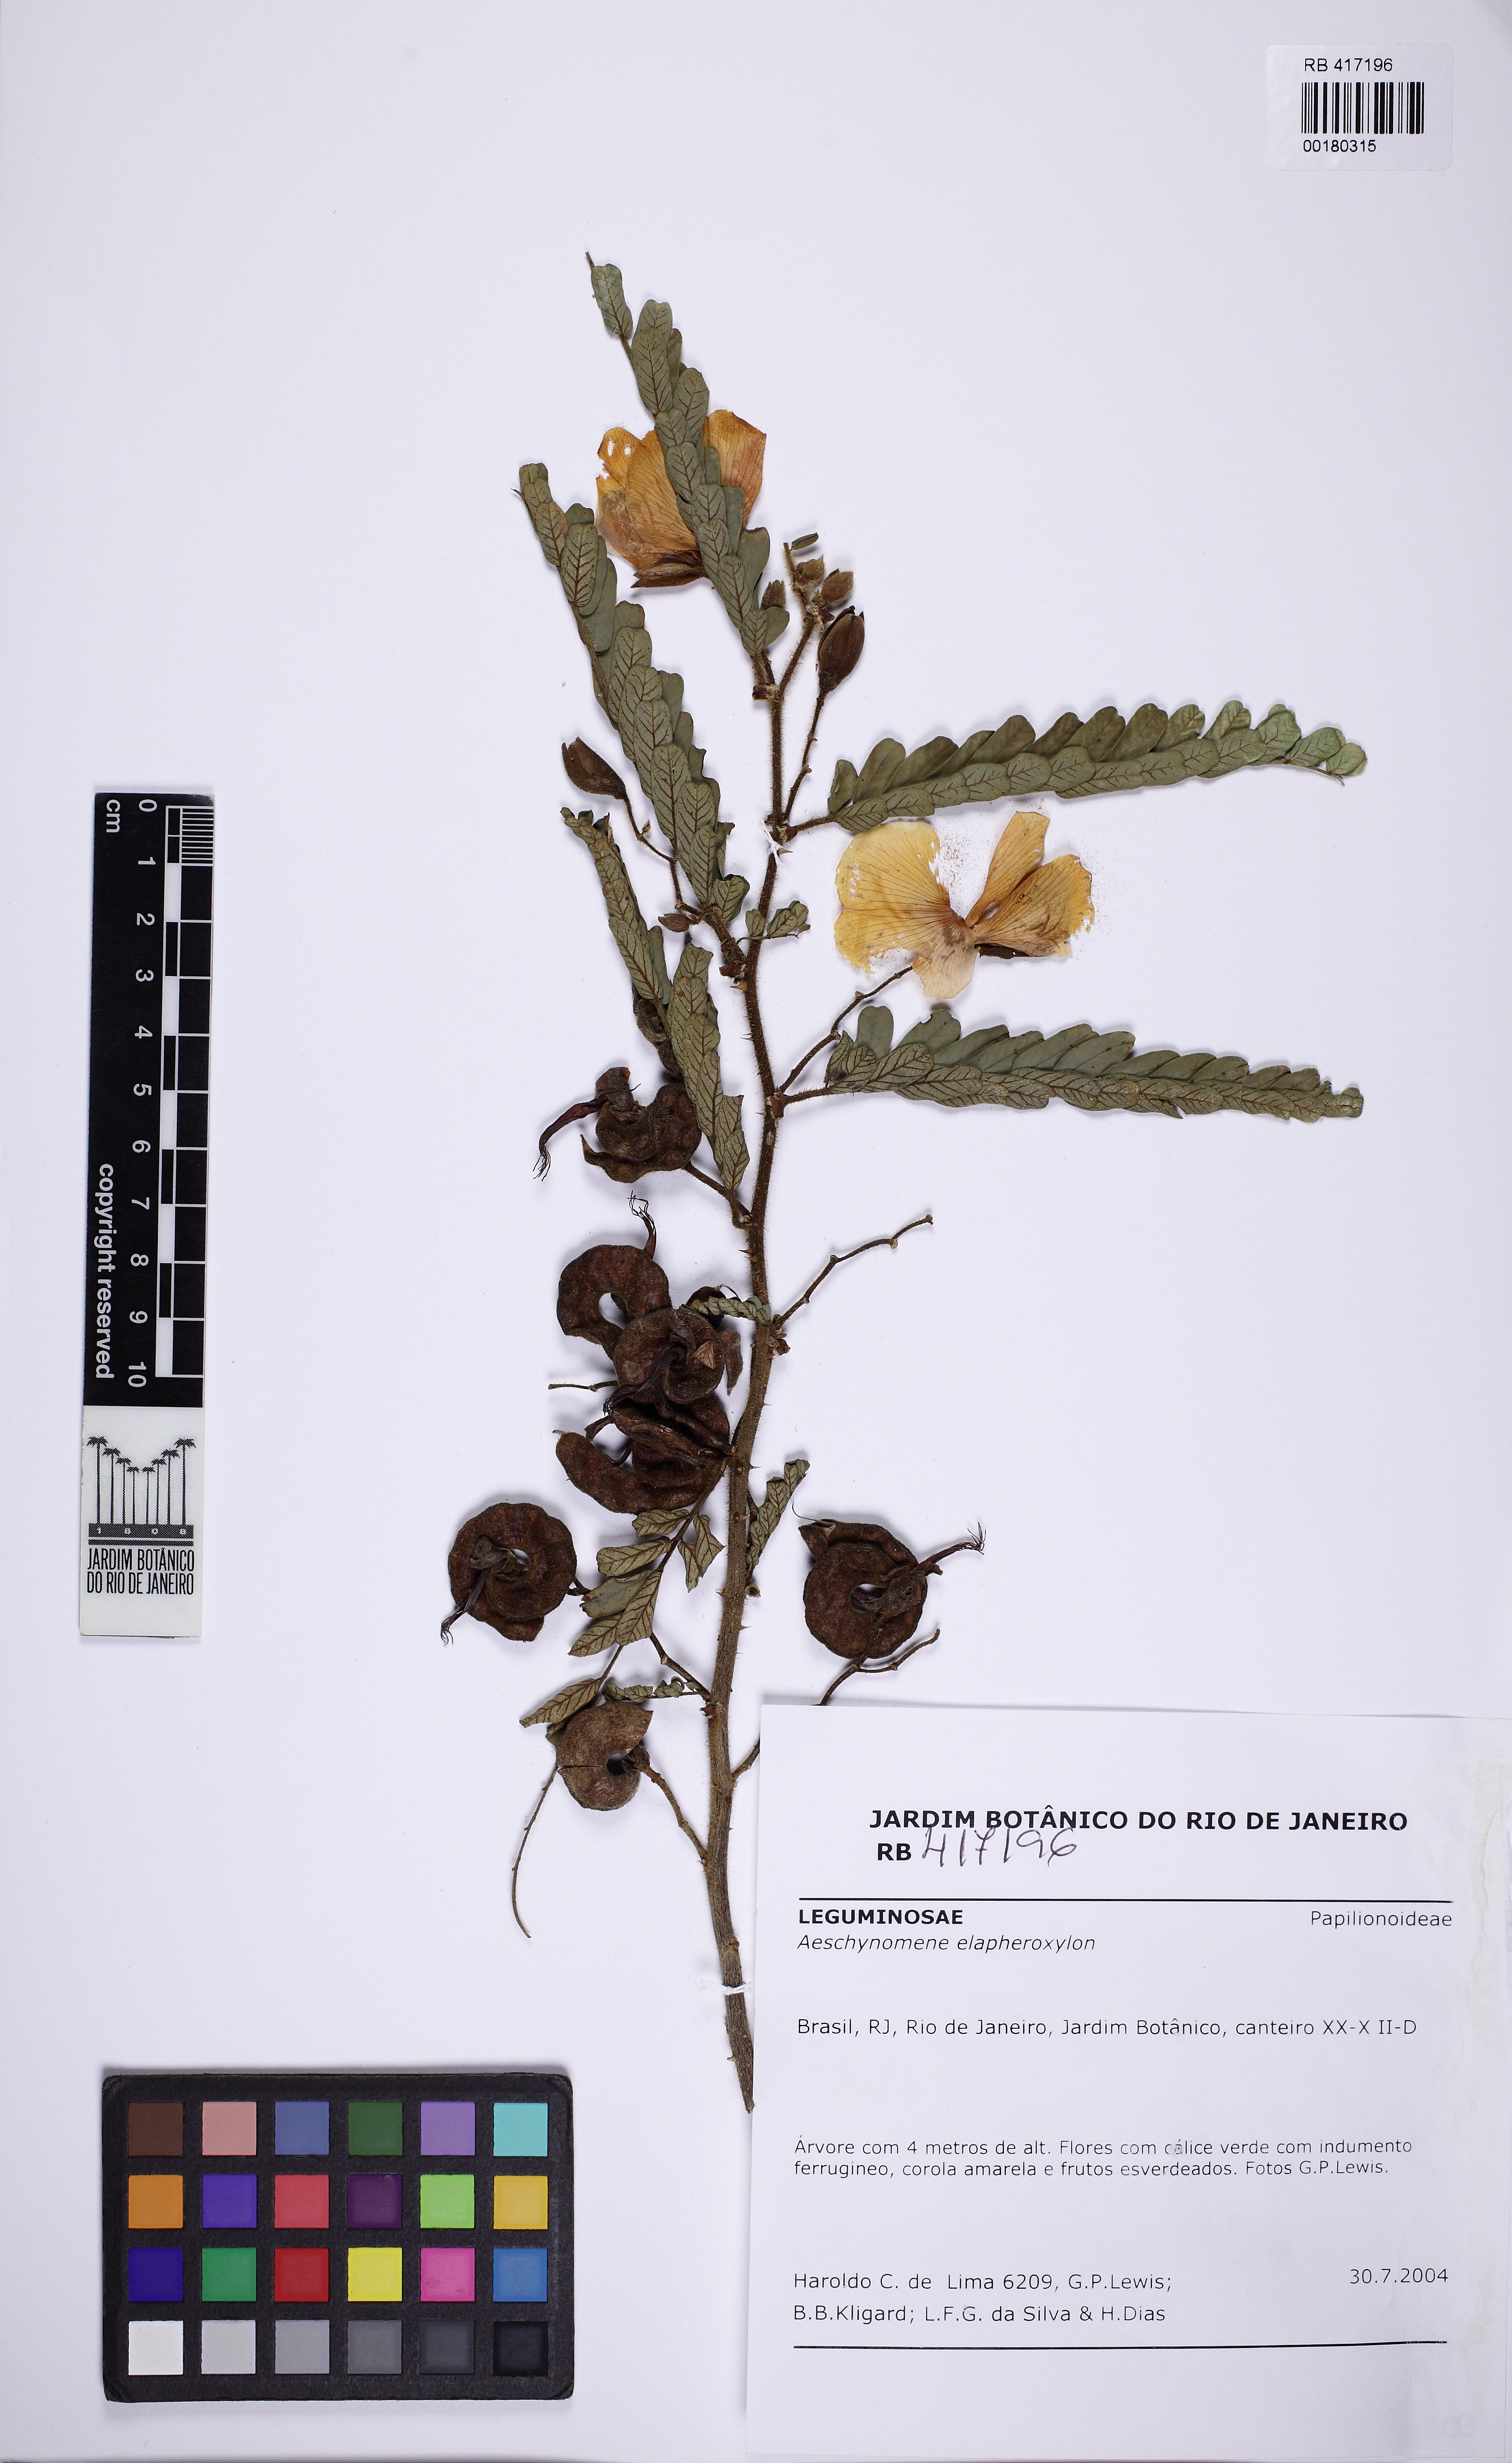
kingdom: Plantae
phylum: Tracheophyta
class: Magnoliopsida
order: Fabales
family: Fabaceae
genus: Aeschynomene
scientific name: Aeschynomene elaphroxylon
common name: Ambatch
